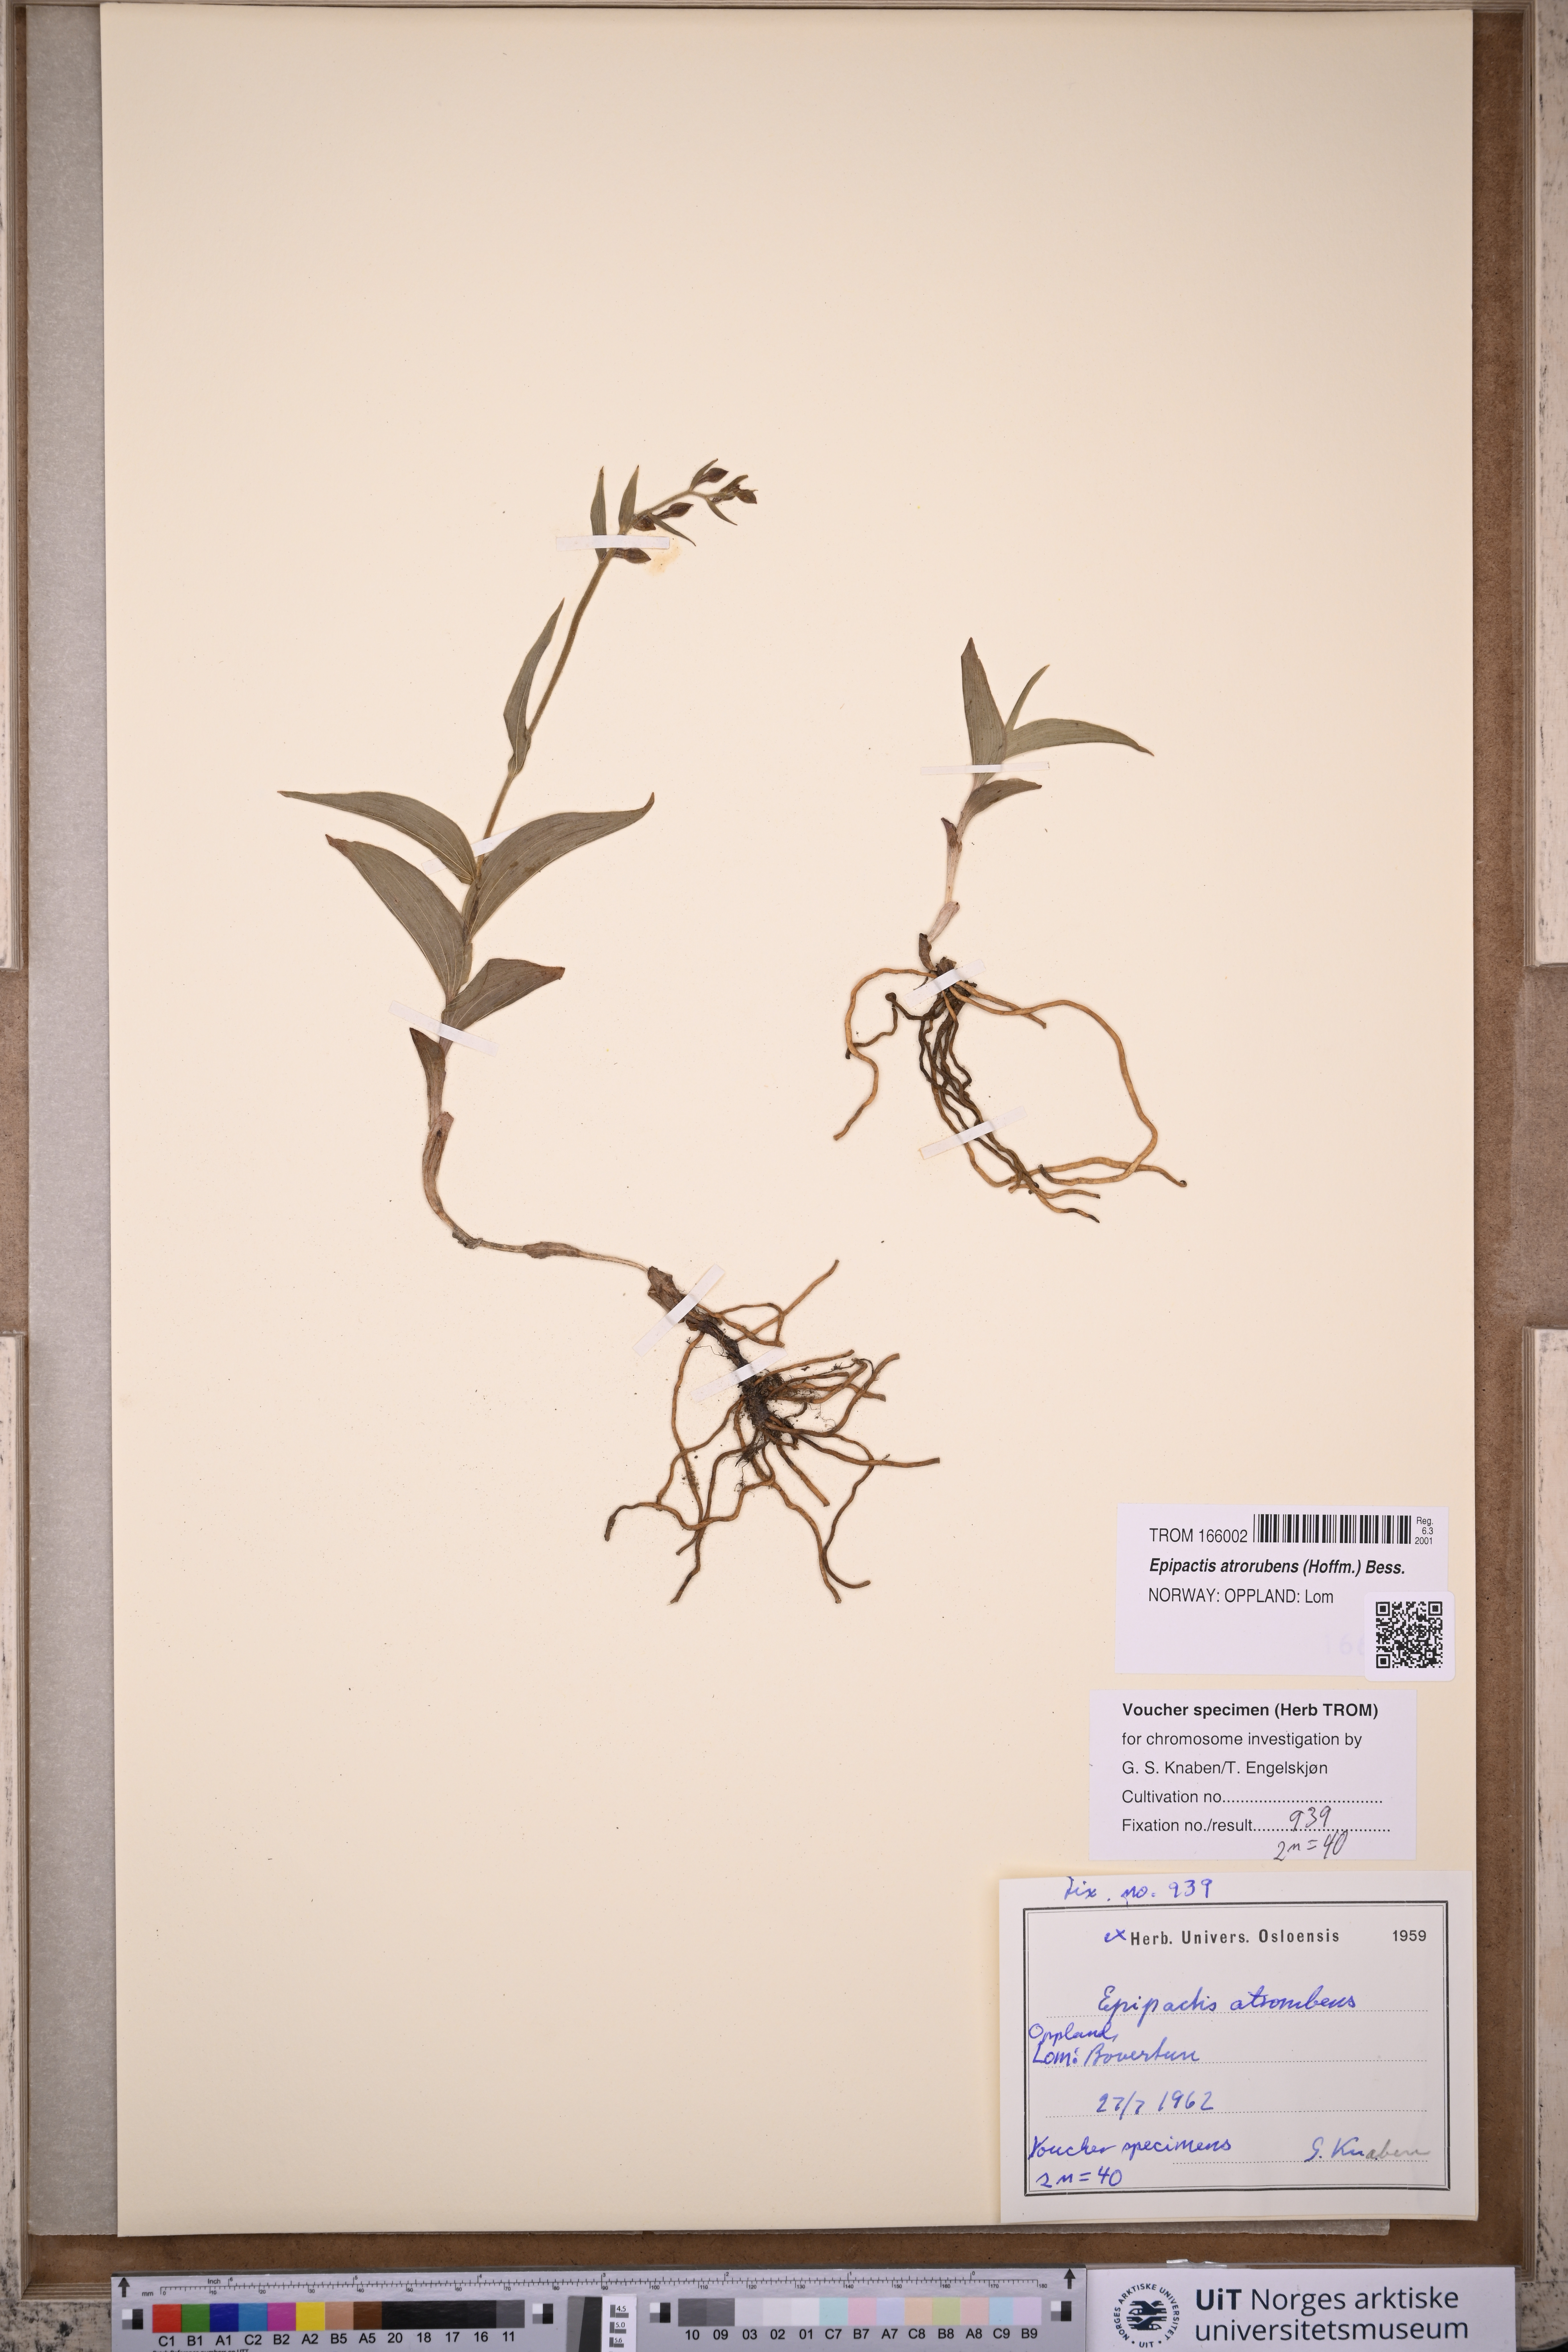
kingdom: Plantae
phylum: Tracheophyta
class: Liliopsida
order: Asparagales
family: Orchidaceae
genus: Epipactis
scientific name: Epipactis atrorubens
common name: Dark-red helleborine
